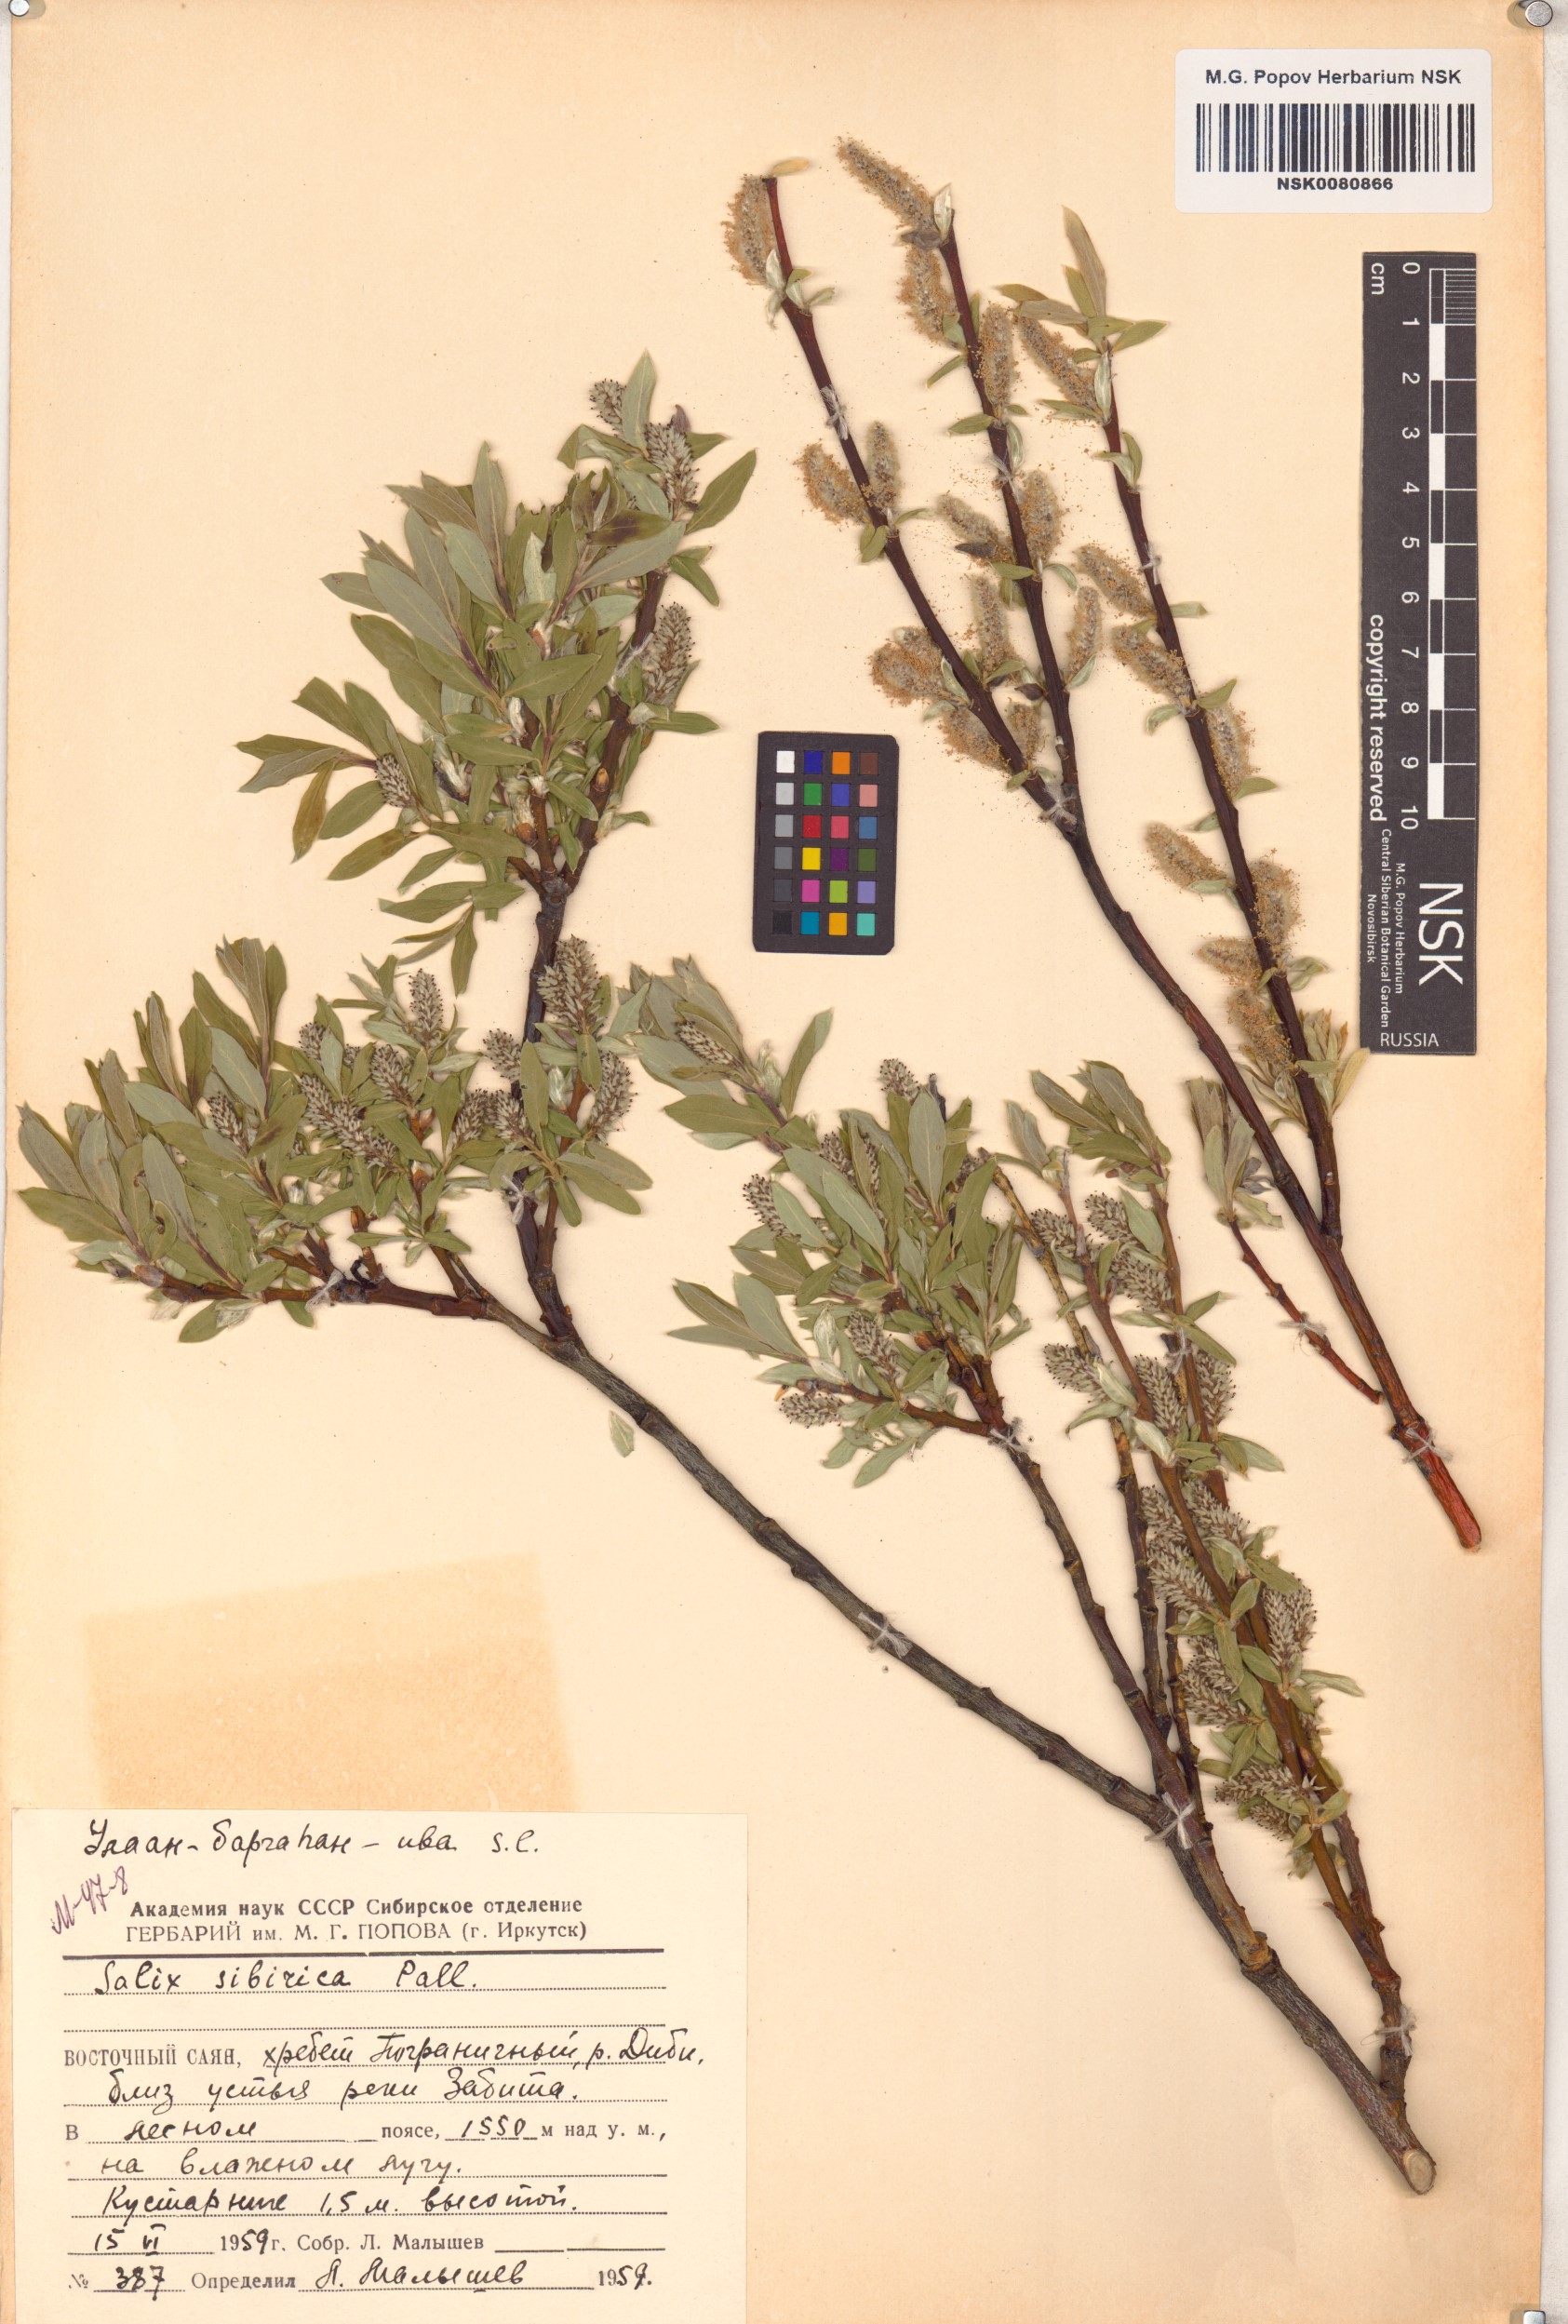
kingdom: Plantae
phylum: Tracheophyta
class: Magnoliopsida
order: Malpighiales
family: Salicaceae
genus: Salix
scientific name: Salix rosmarinifolia
